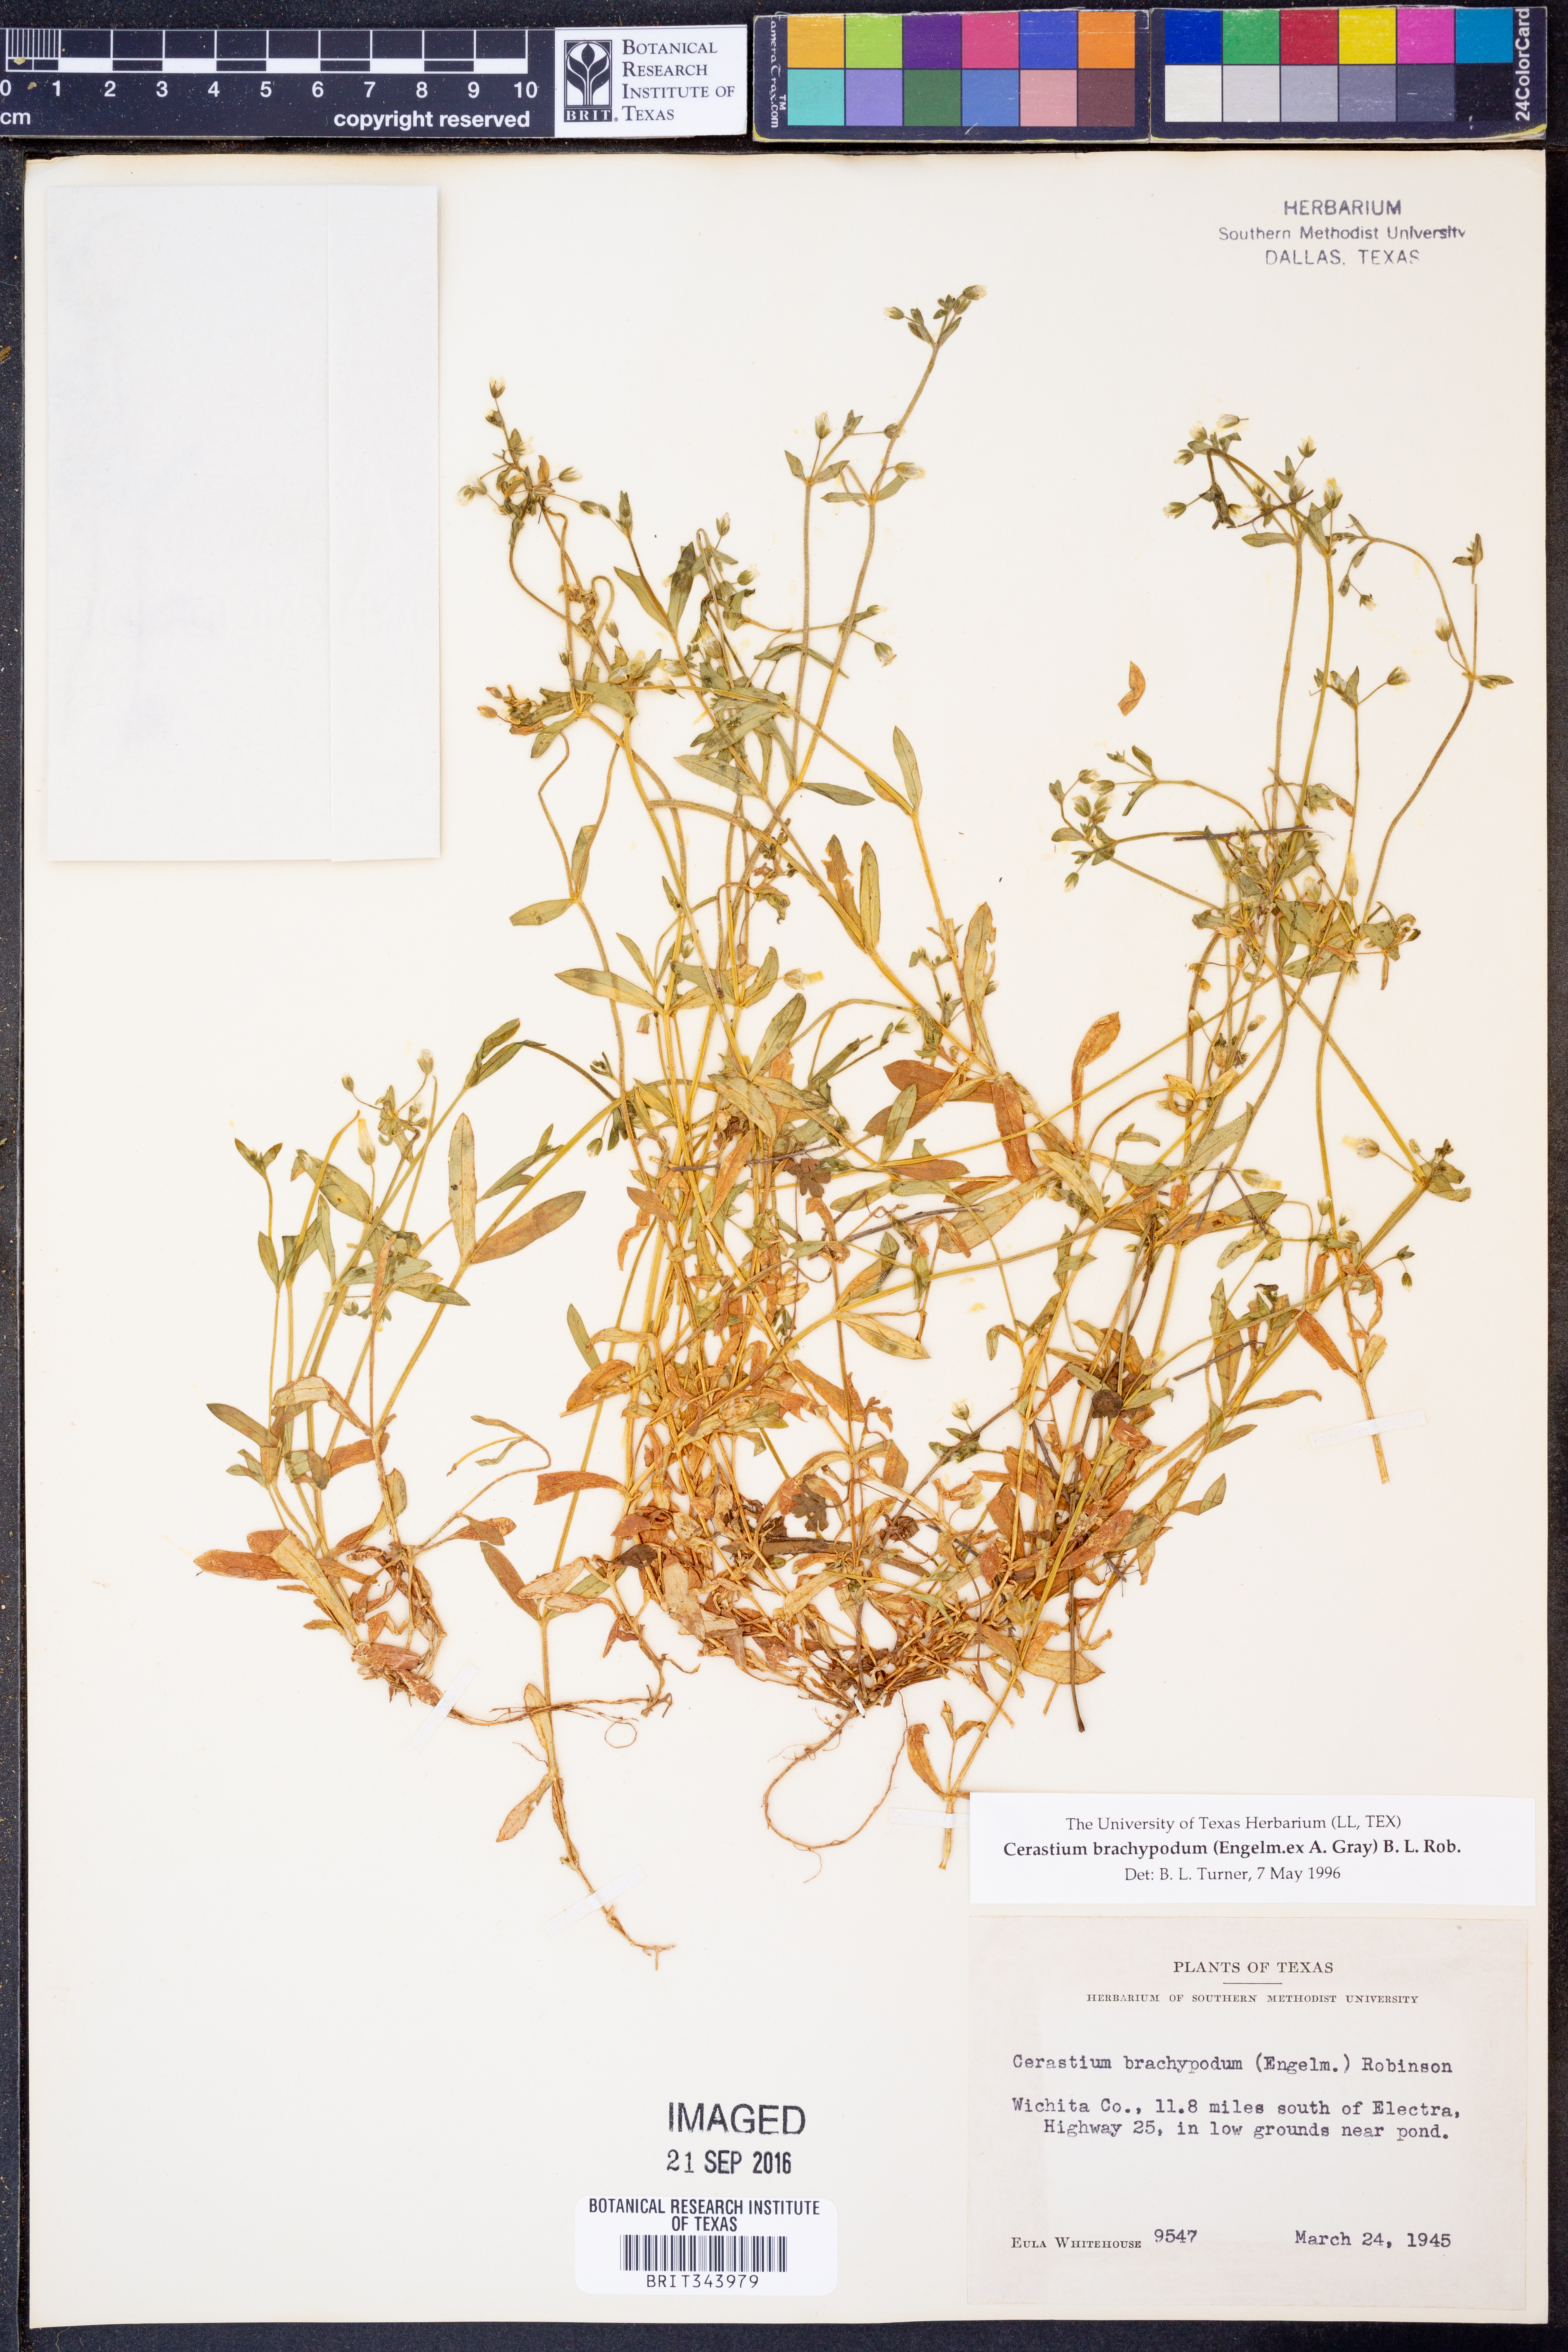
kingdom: Plantae
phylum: Tracheophyta
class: Magnoliopsida
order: Caryophyllales
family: Caryophyllaceae
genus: Cerastium
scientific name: Cerastium brachypodum
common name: Short-pedicelled nodding chickweed
